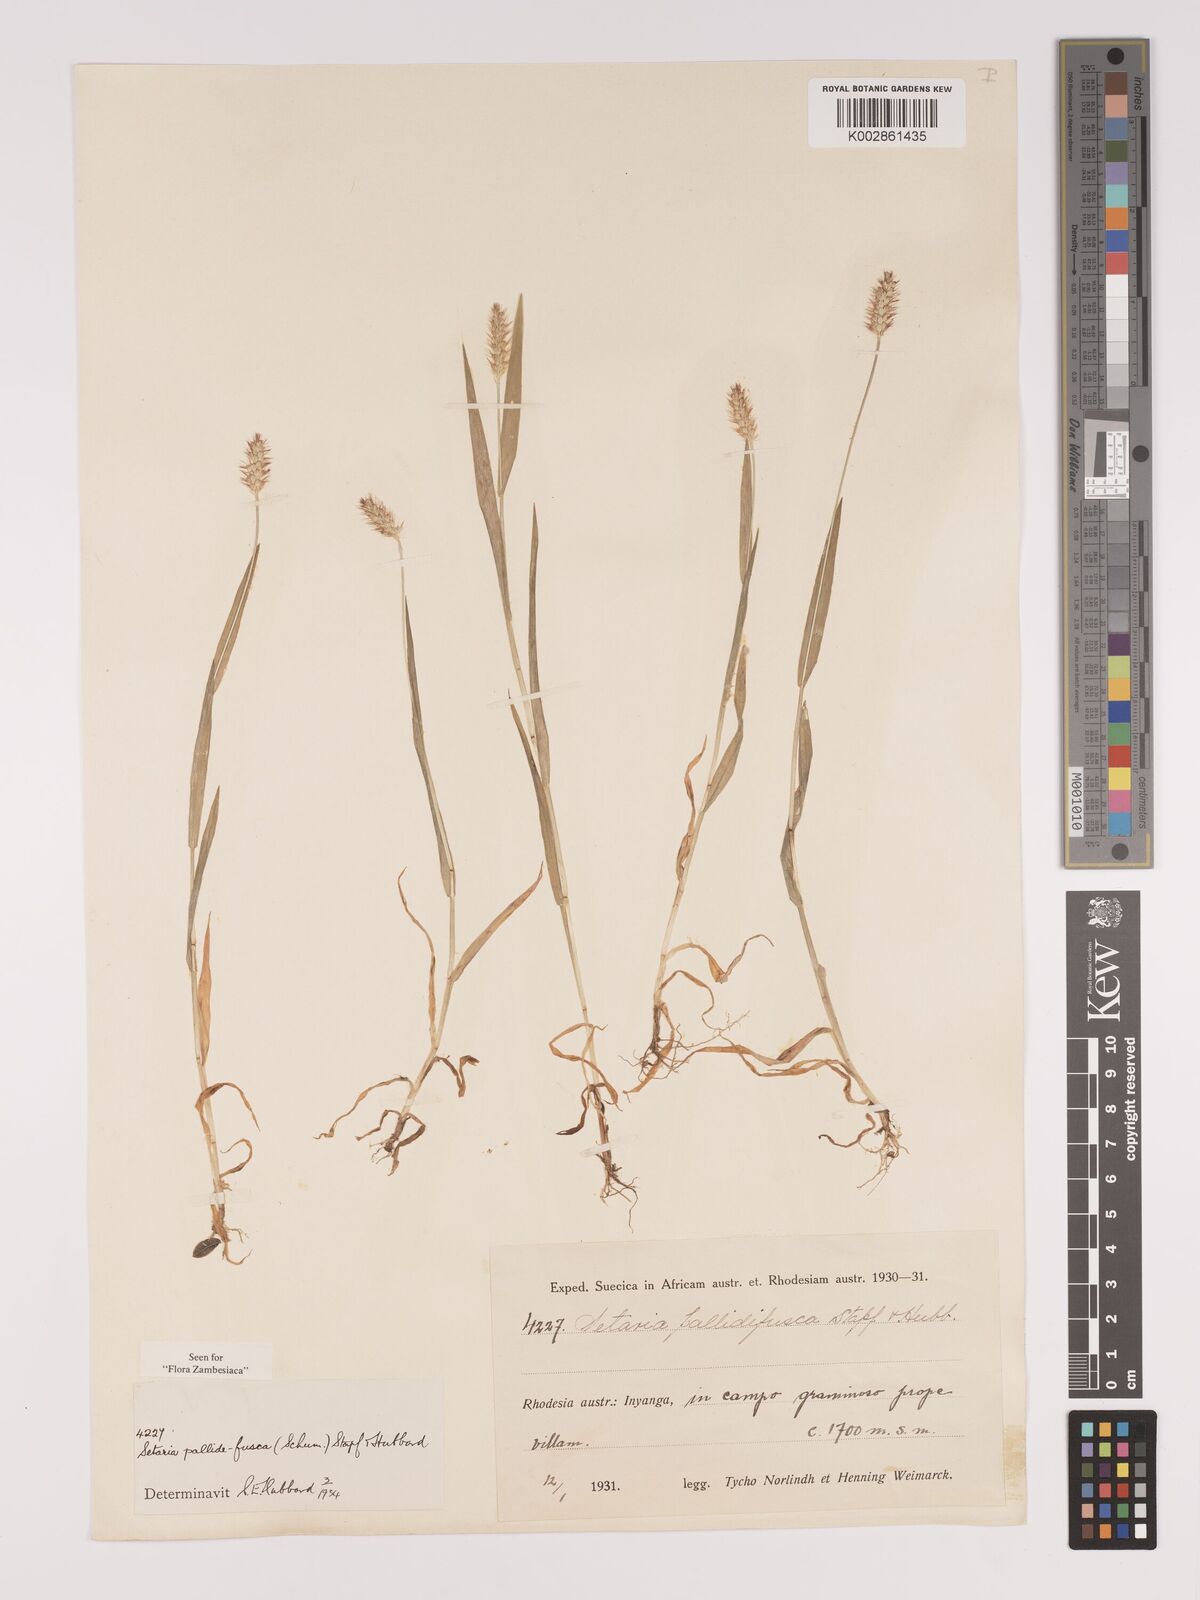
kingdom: Plantae
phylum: Tracheophyta
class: Liliopsida
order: Poales
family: Poaceae
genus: Setaria
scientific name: Setaria pumila
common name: Yellow bristle-grass
